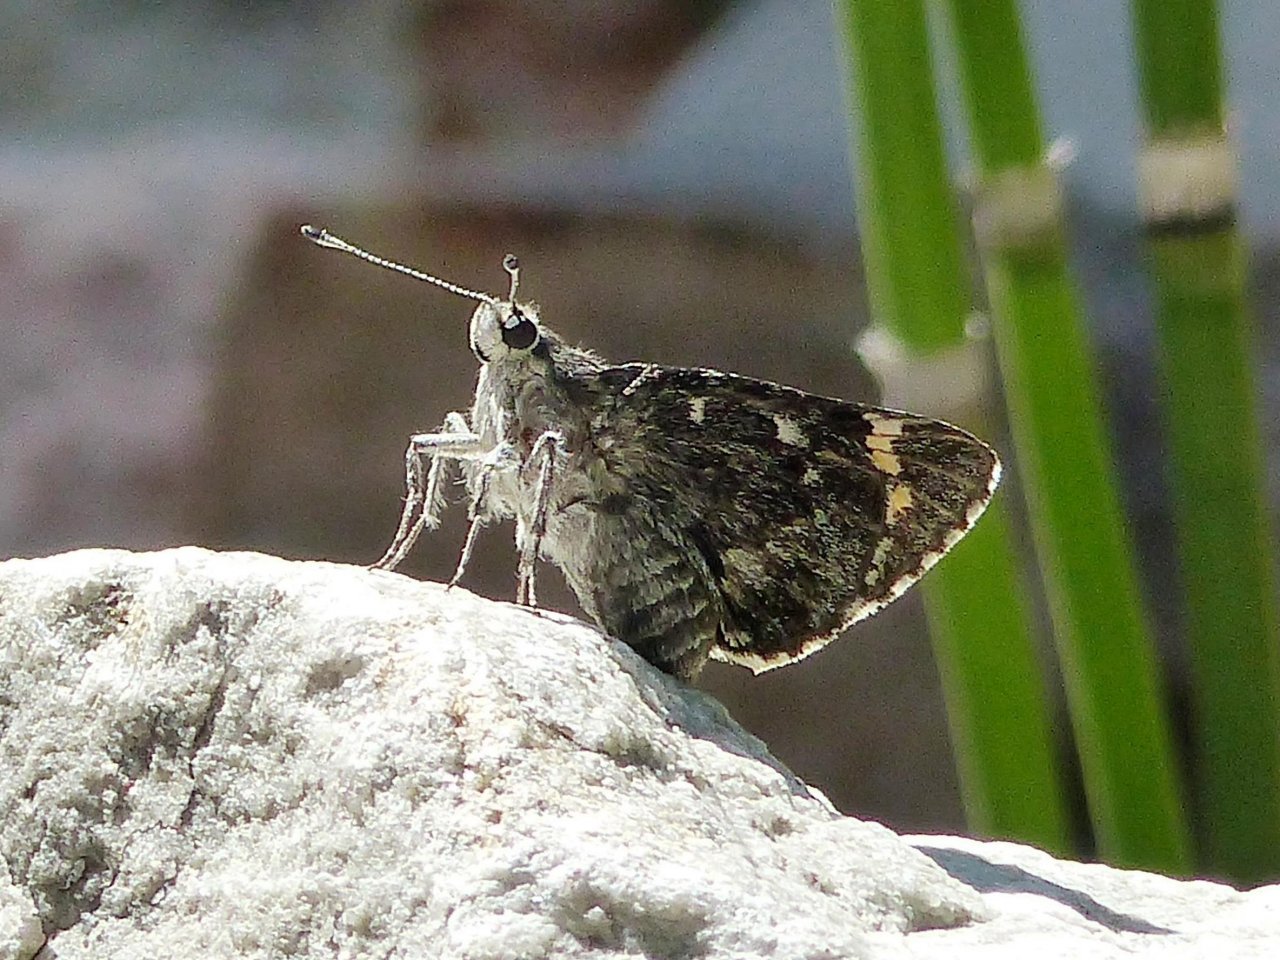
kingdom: Animalia
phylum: Arthropoda
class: Insecta
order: Lepidoptera
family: Hesperiidae
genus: Agathymus
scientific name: Agathymus evansi
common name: Huachuca Giant-Skipper
